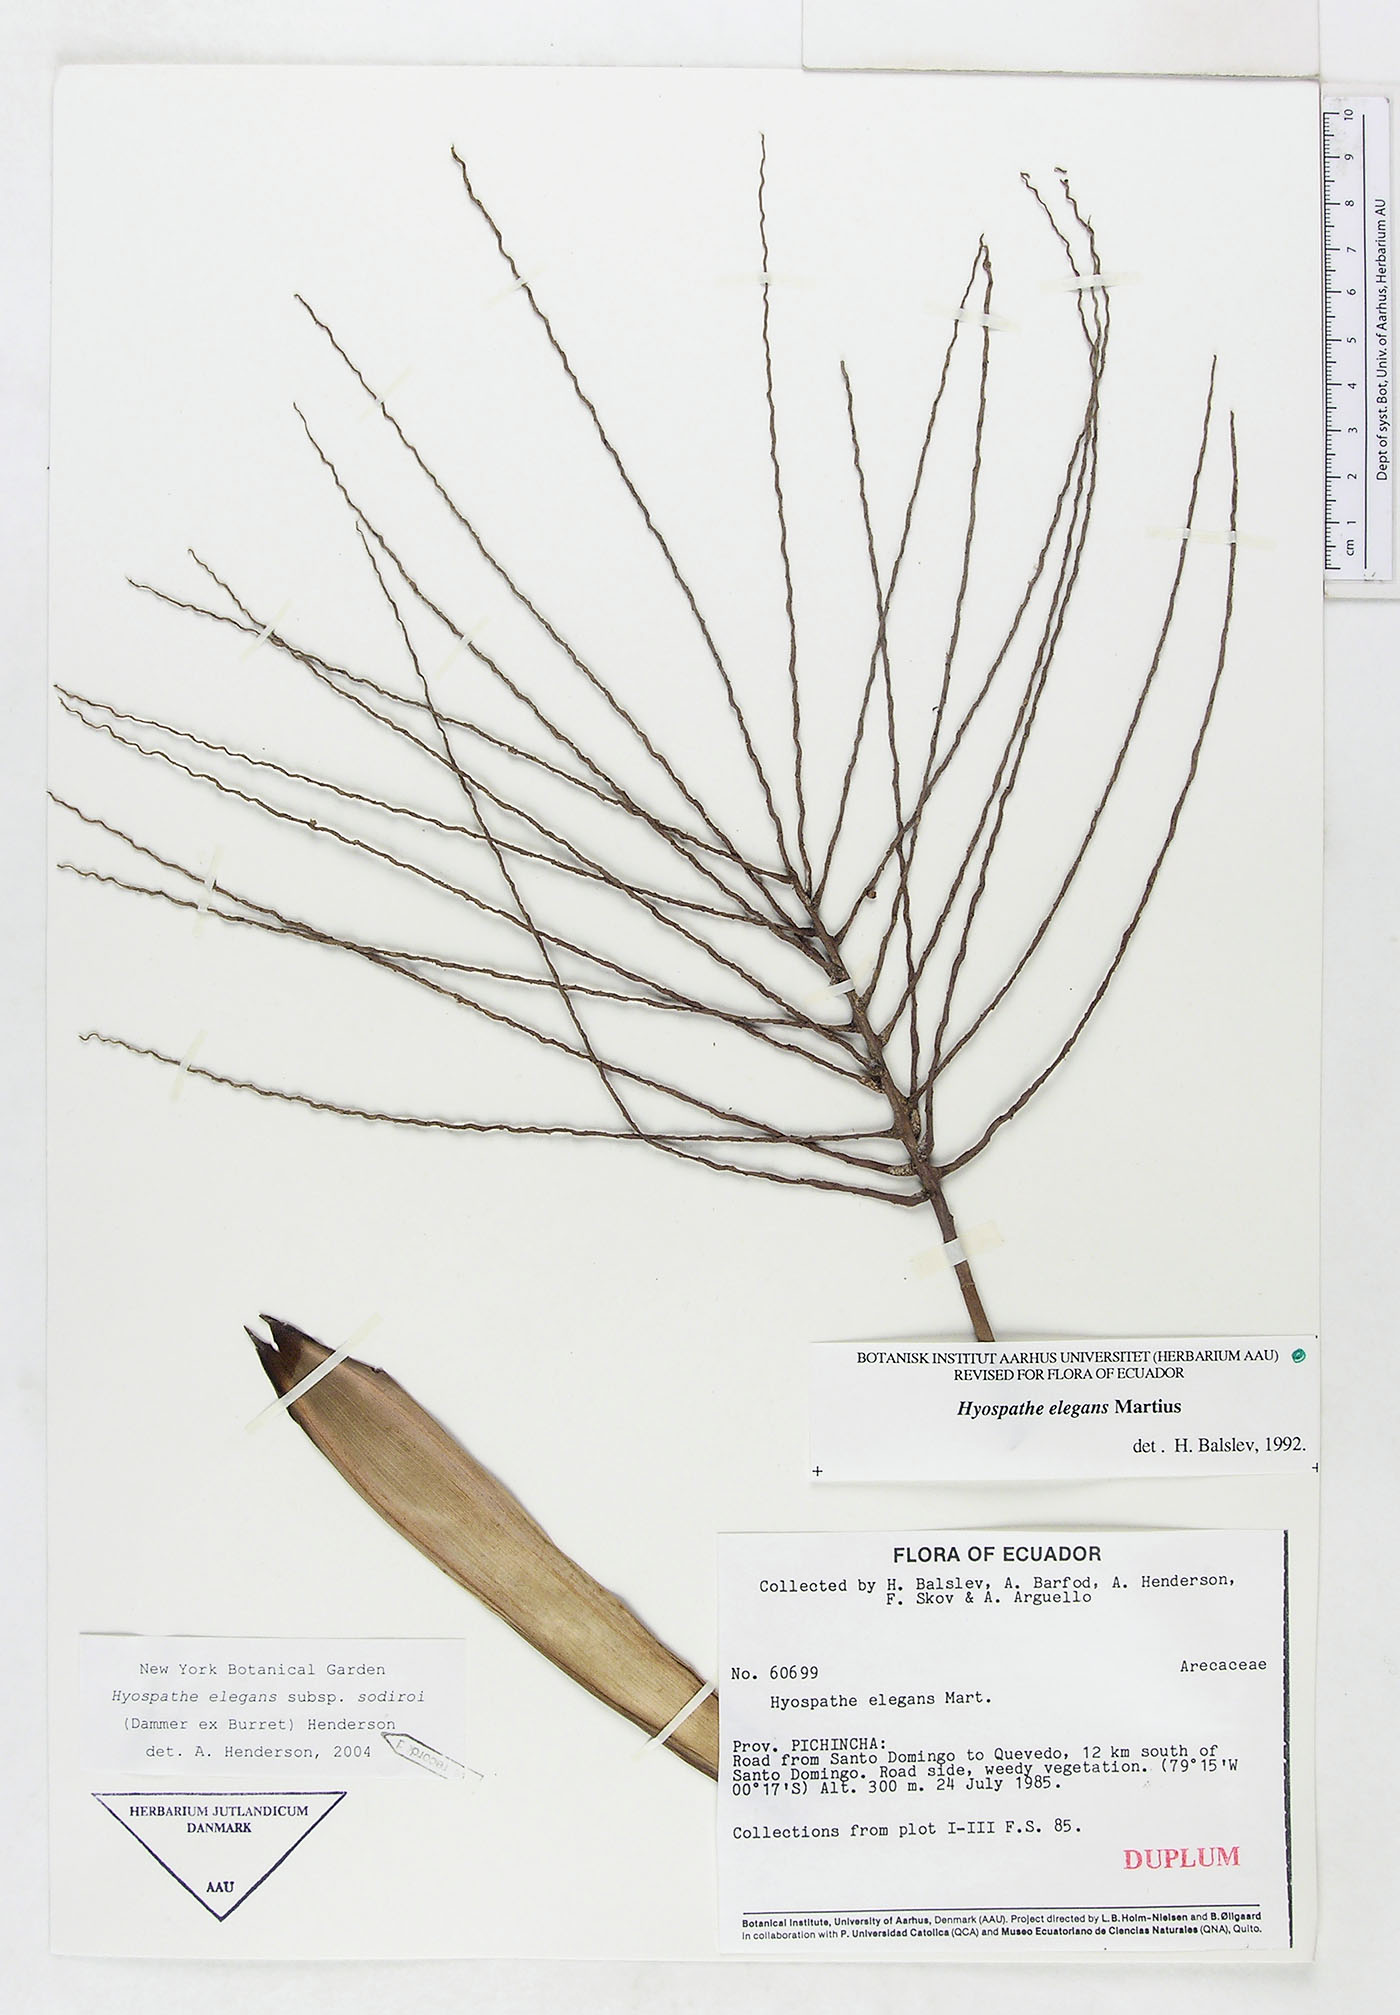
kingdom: Plantae
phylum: Tracheophyta
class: Liliopsida
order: Arecales
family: Arecaceae
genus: Hyospathe
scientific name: Hyospathe elegans
